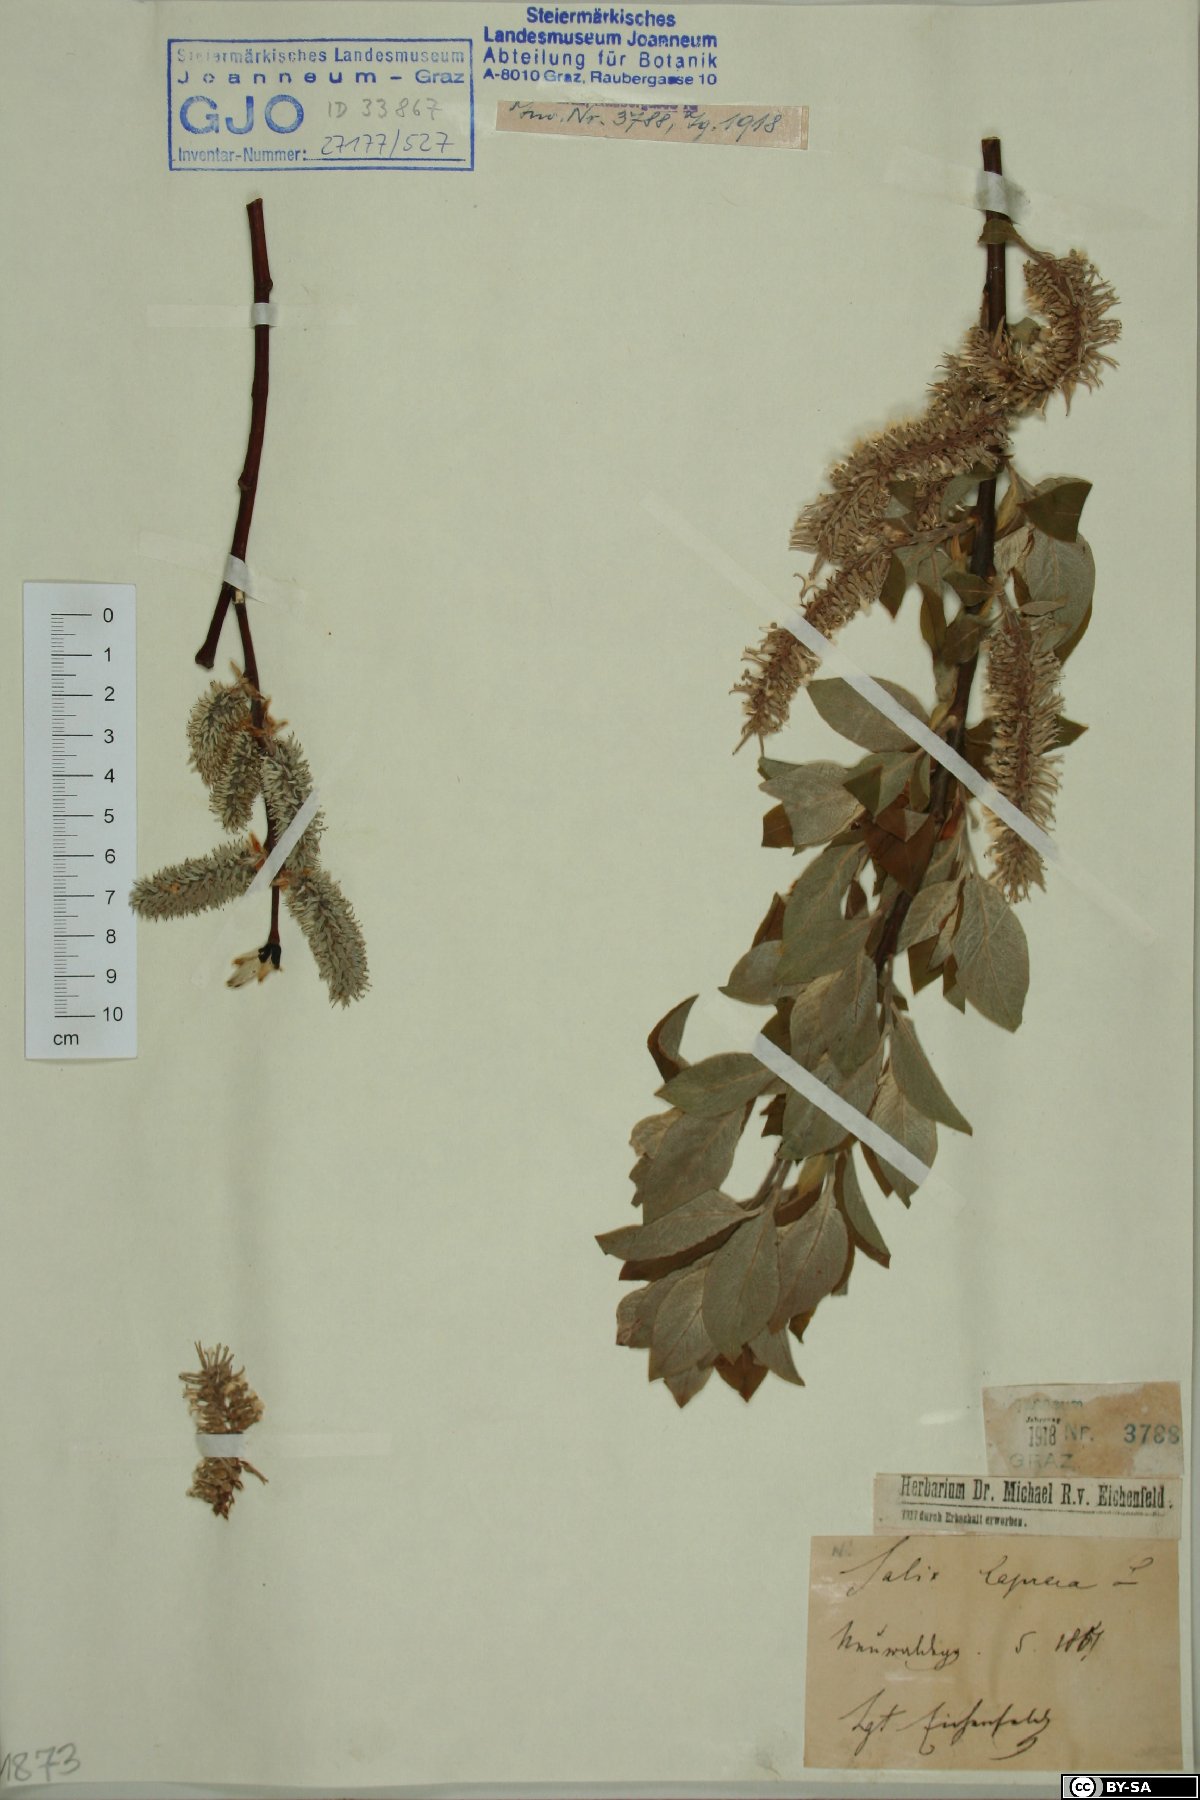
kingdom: Plantae
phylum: Tracheophyta
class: Magnoliopsida
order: Malpighiales
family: Salicaceae
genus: Salix
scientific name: Salix caprea
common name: Goat willow
